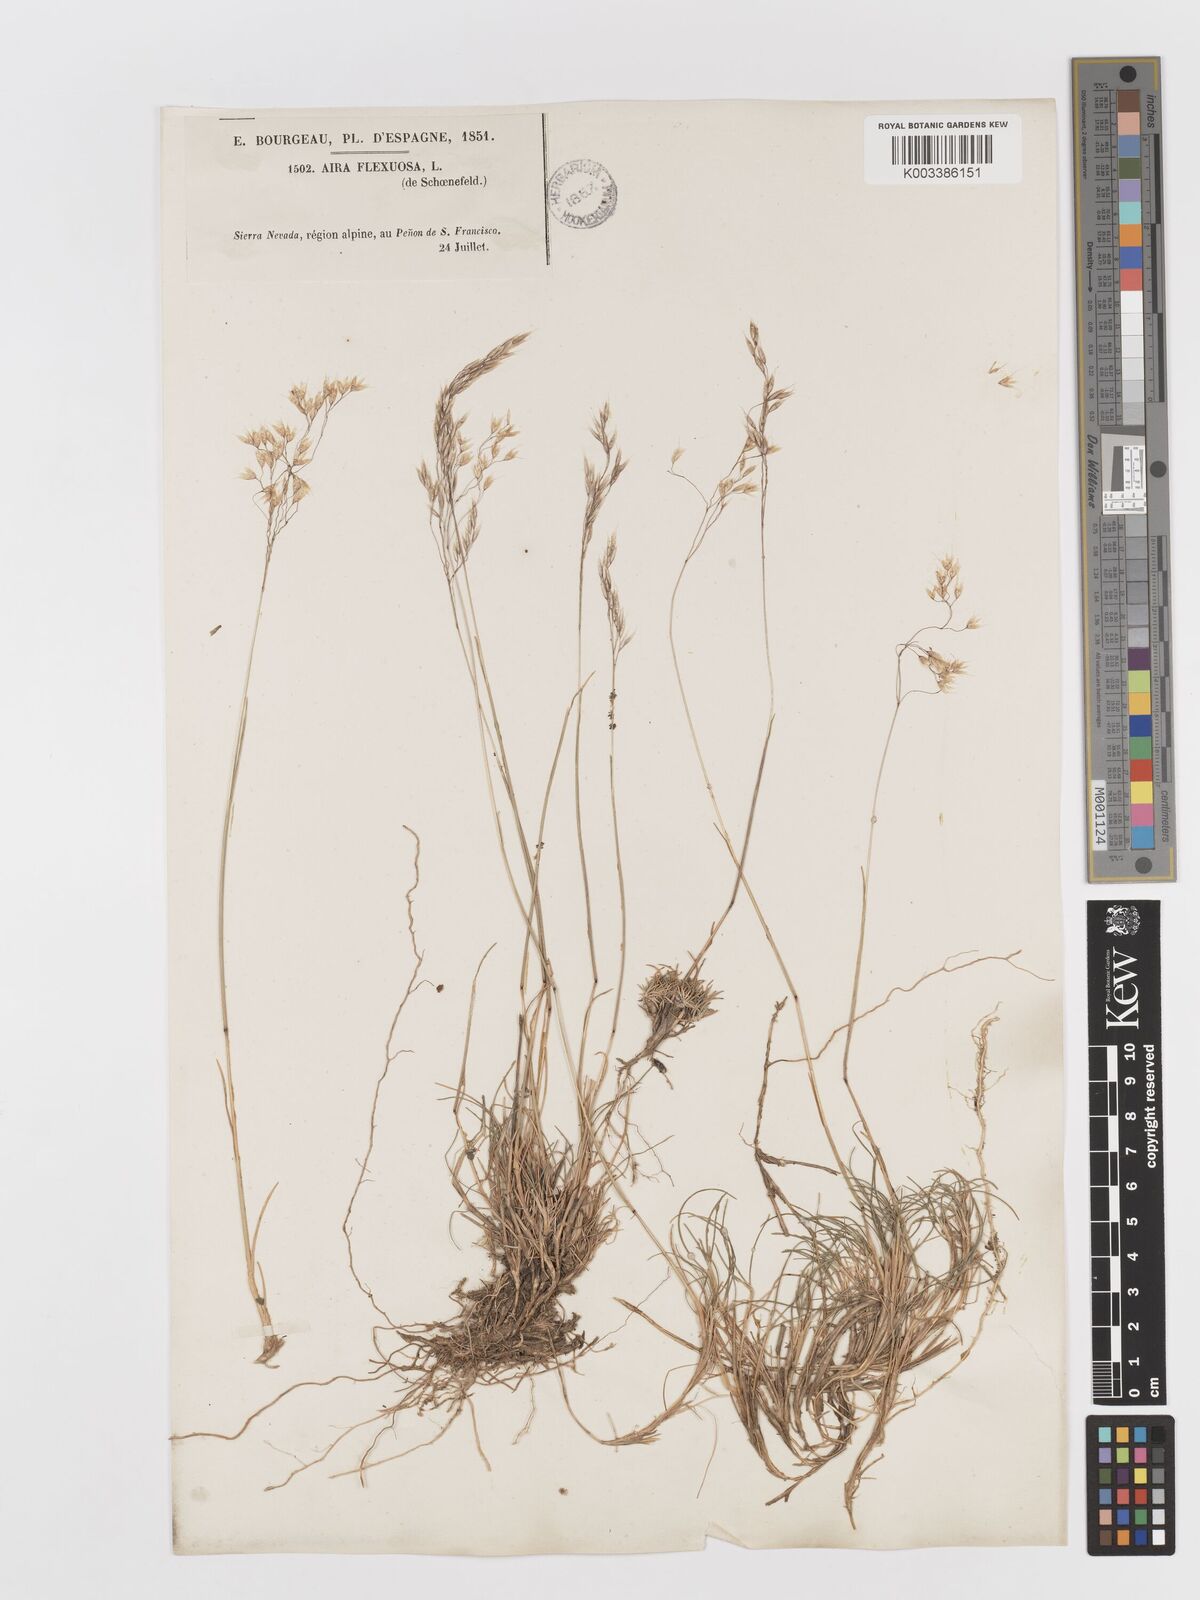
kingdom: Plantae
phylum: Tracheophyta
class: Liliopsida
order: Poales
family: Poaceae
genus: Avenella
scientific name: Avenella flexuosa
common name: Wavy hairgrass
